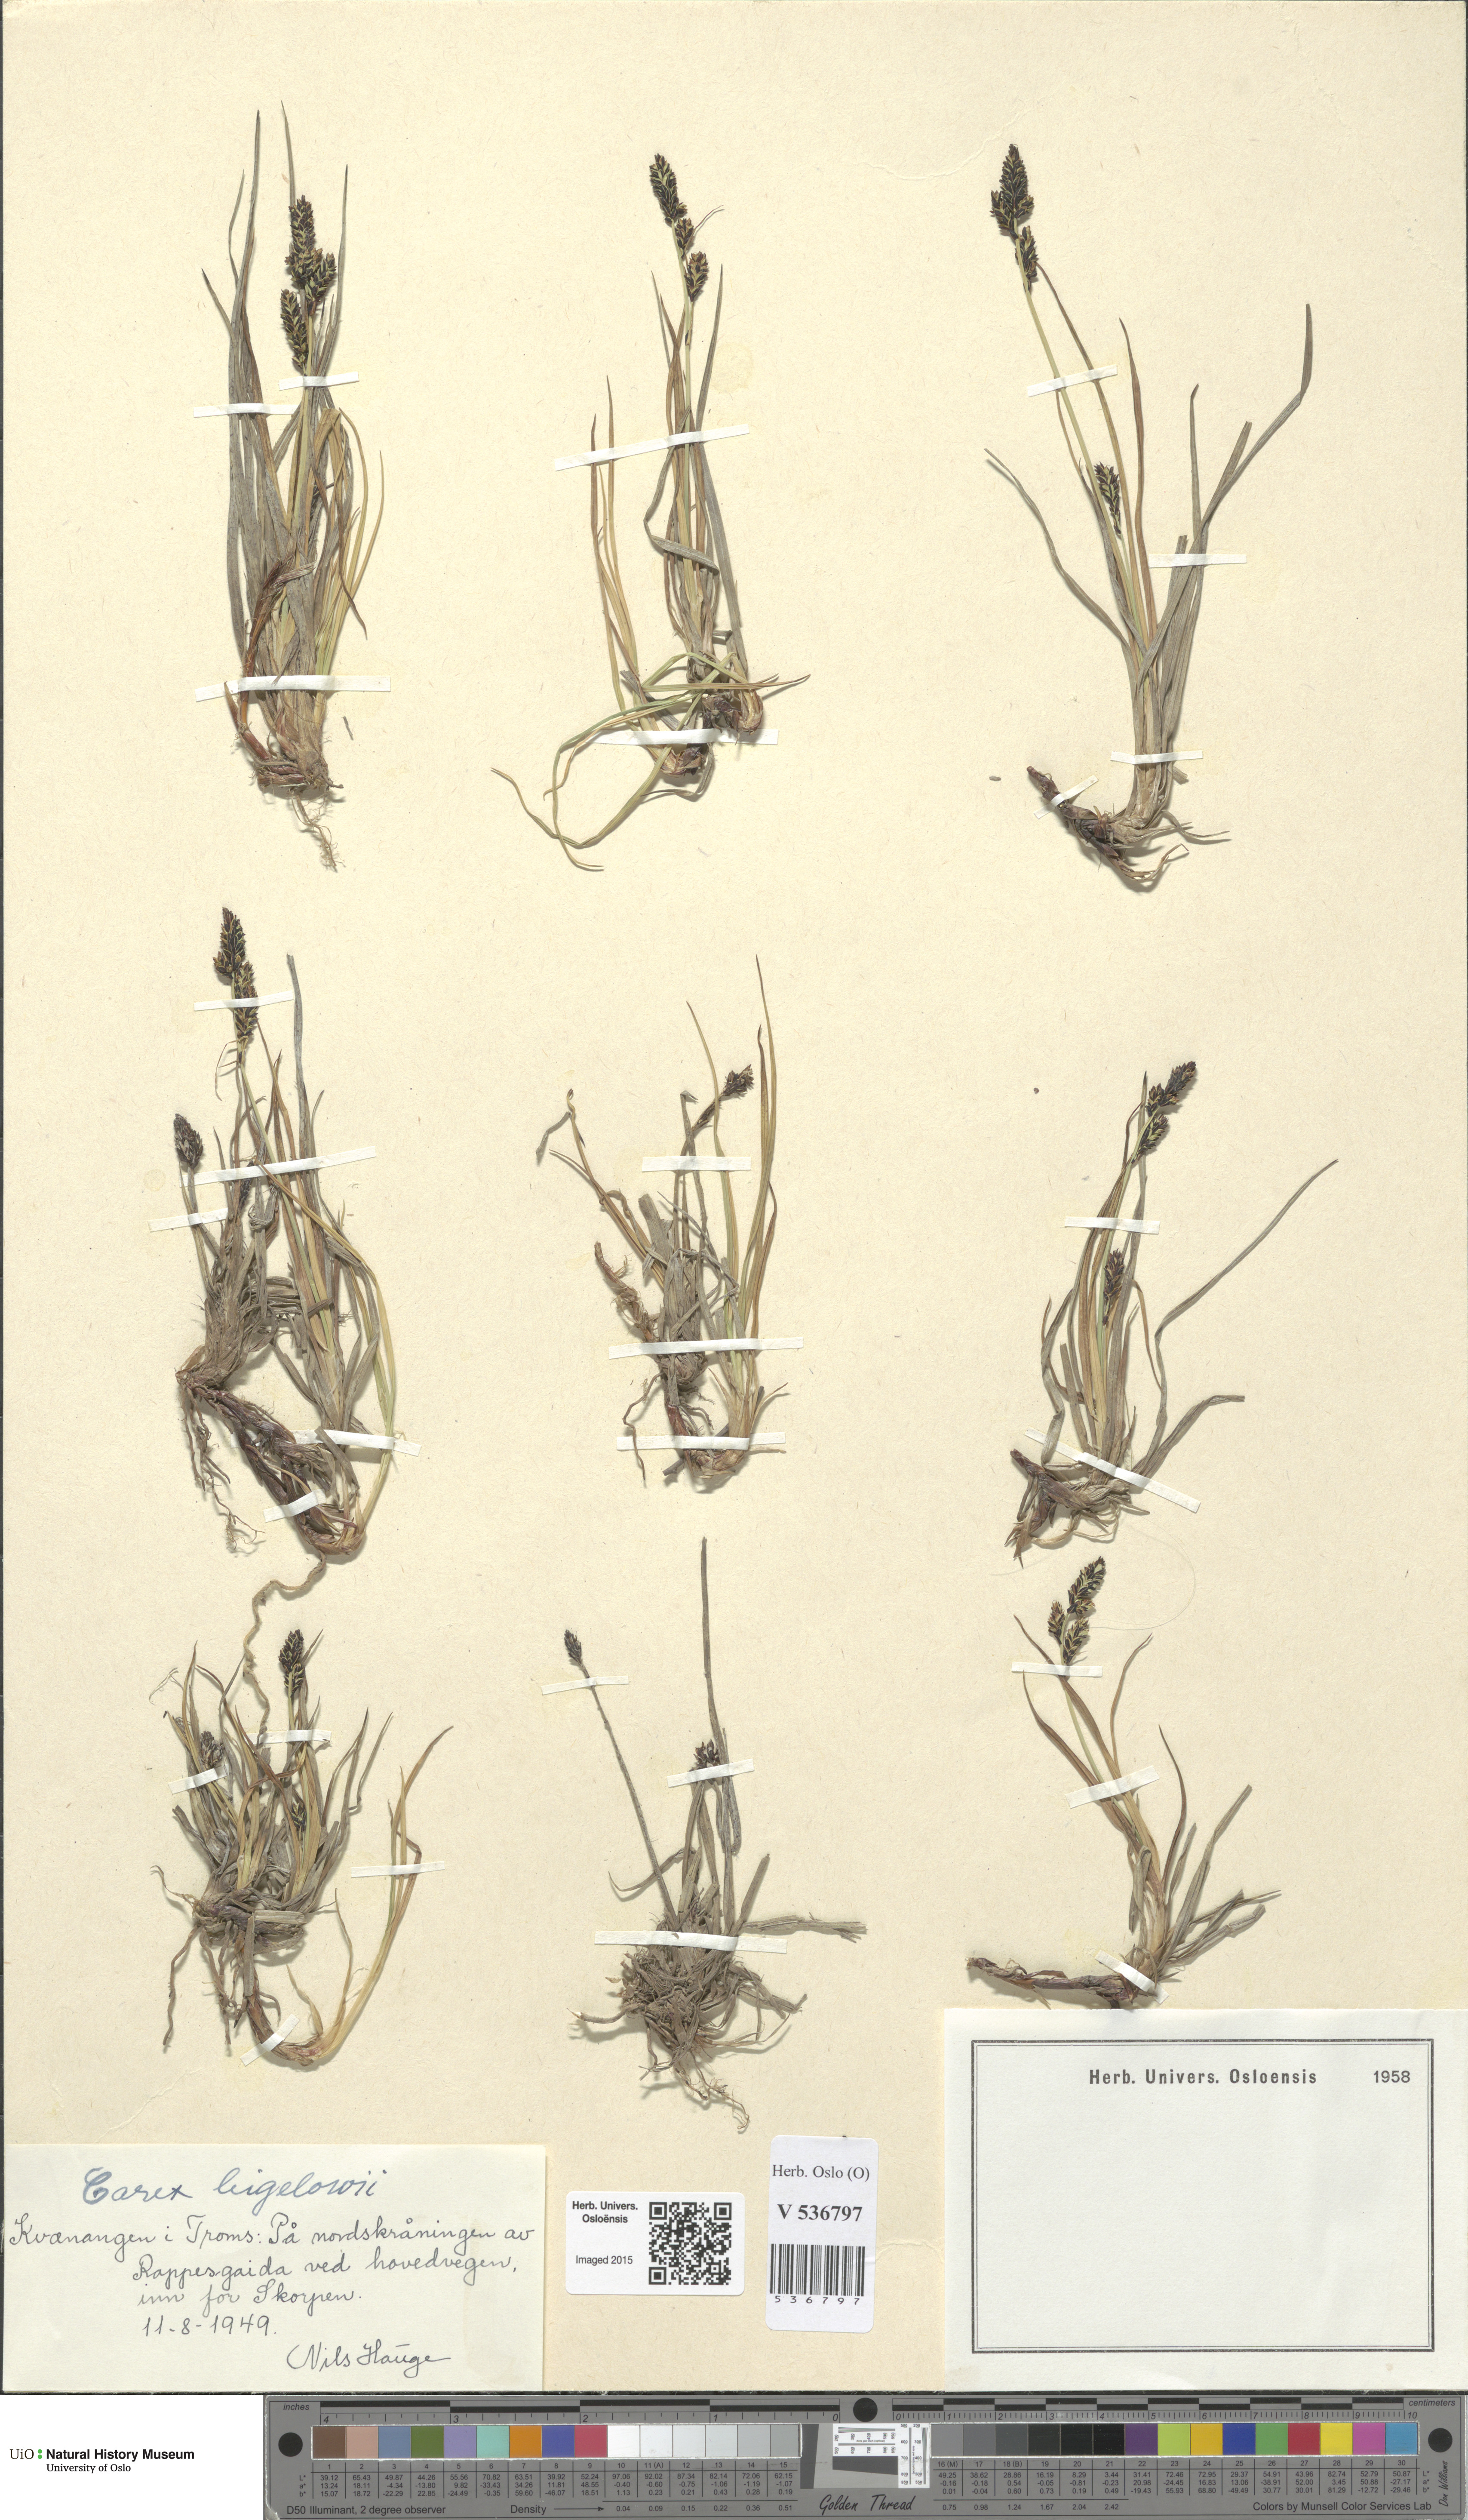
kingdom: Plantae
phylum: Tracheophyta
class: Liliopsida
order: Poales
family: Cyperaceae
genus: Carex
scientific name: Carex bigelowii
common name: Stiff sedge
